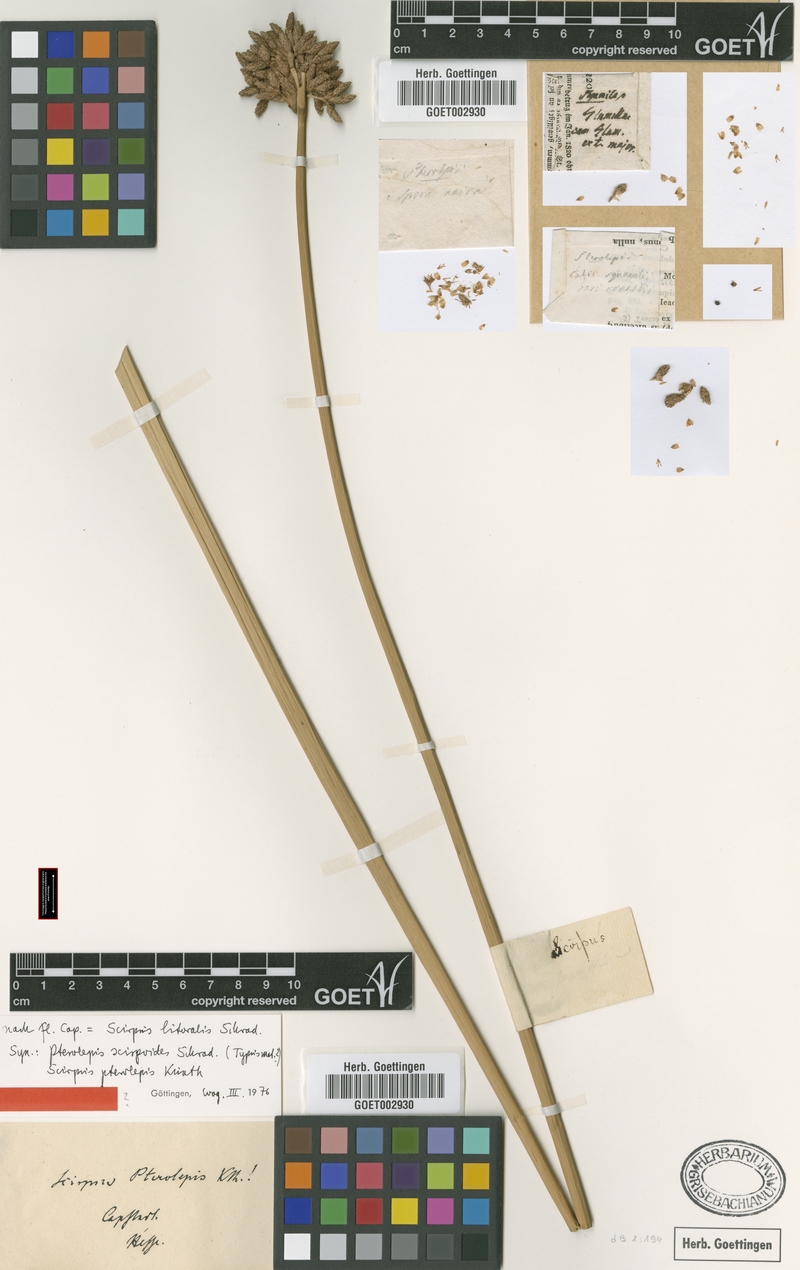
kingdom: Plantae
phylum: Tracheophyta
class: Liliopsida
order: Poales
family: Cyperaceae
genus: Schoenoplectus
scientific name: Schoenoplectus litoralis
